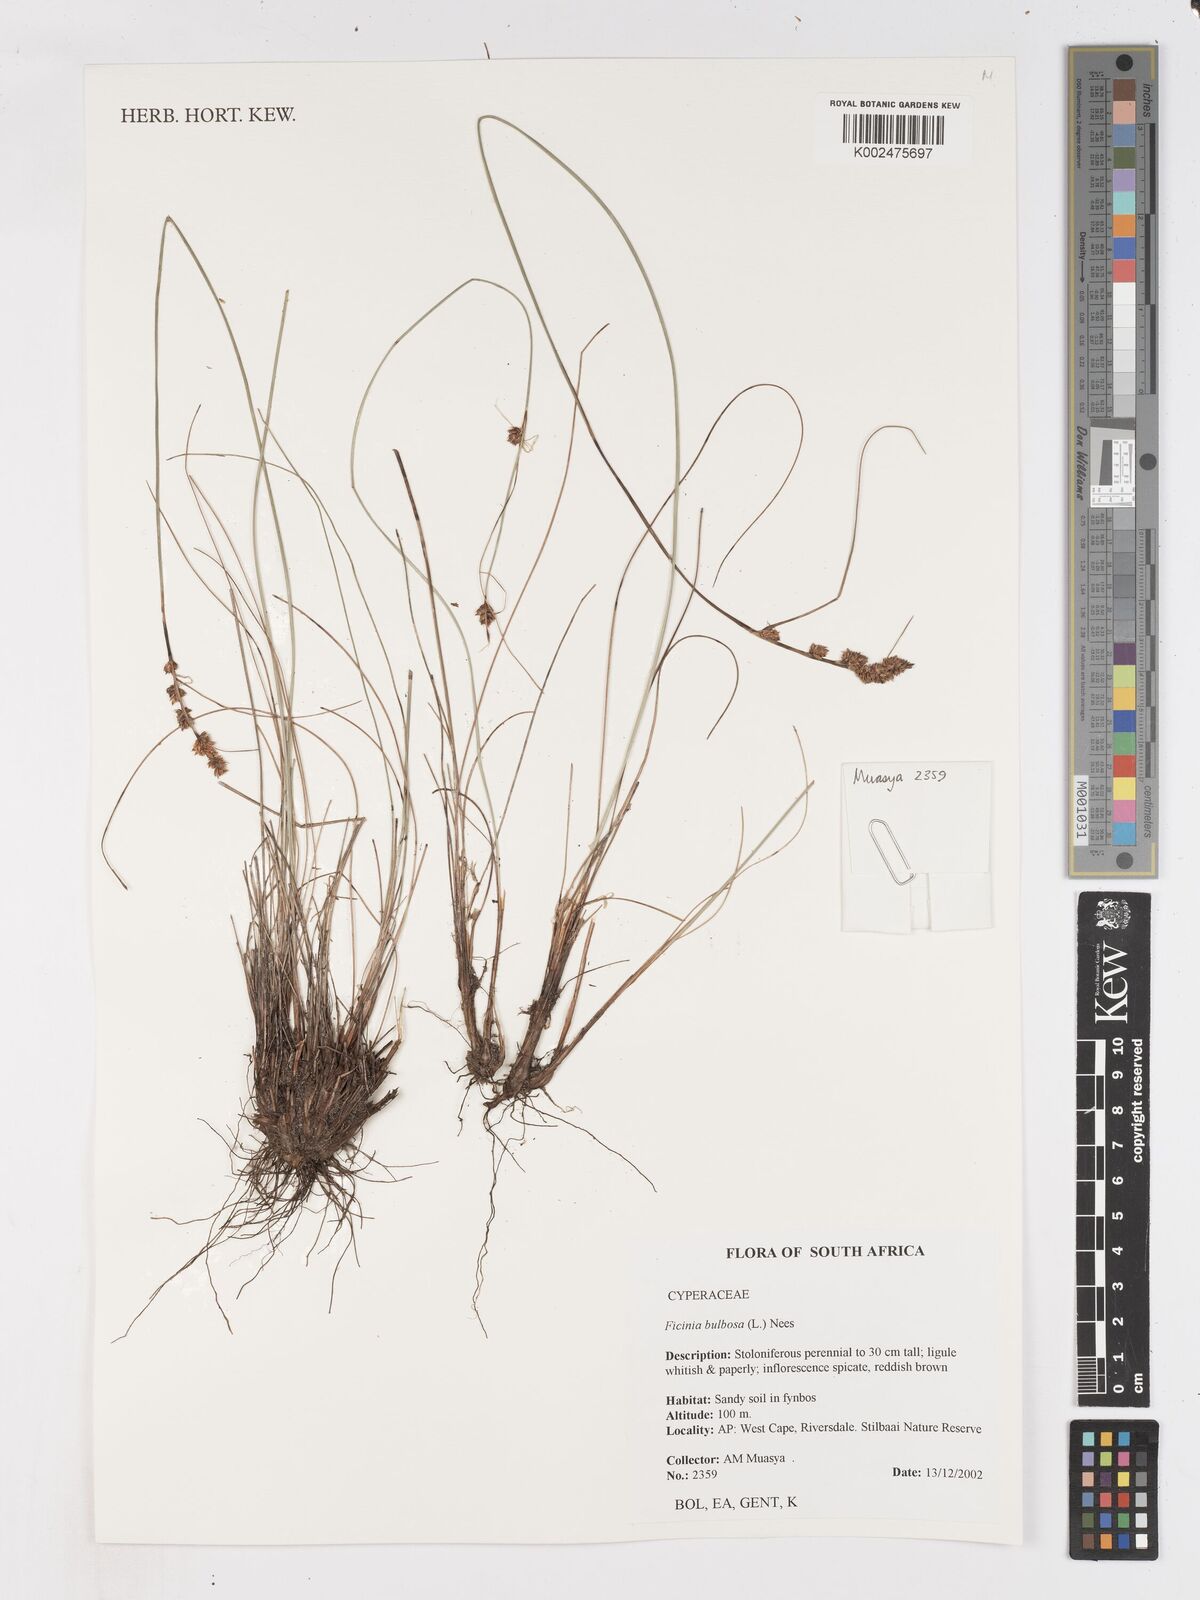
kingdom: Plantae
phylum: Tracheophyta
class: Liliopsida
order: Poales
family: Cyperaceae
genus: Ficinia
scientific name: Ficinia bulbosa
